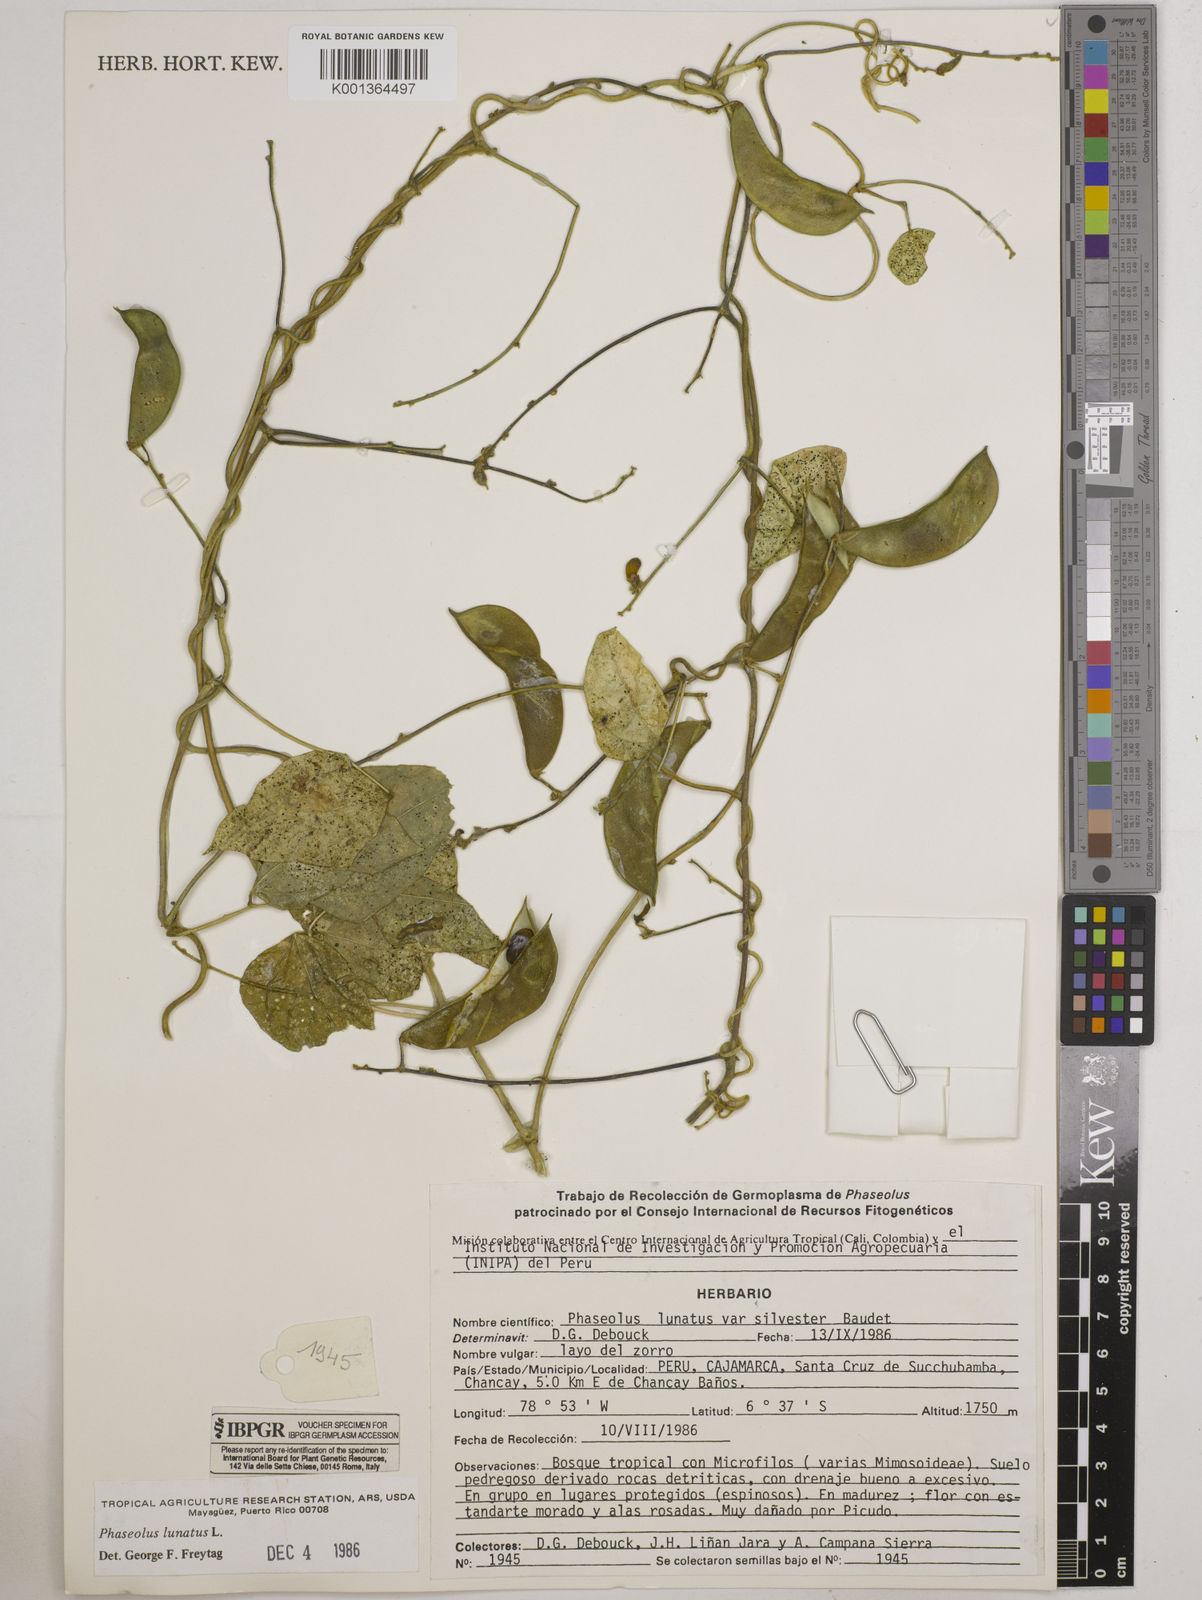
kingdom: Plantae
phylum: Tracheophyta
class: Magnoliopsida
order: Fabales
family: Fabaceae
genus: Phaseolus
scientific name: Phaseolus lunatus
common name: Sieva bean
